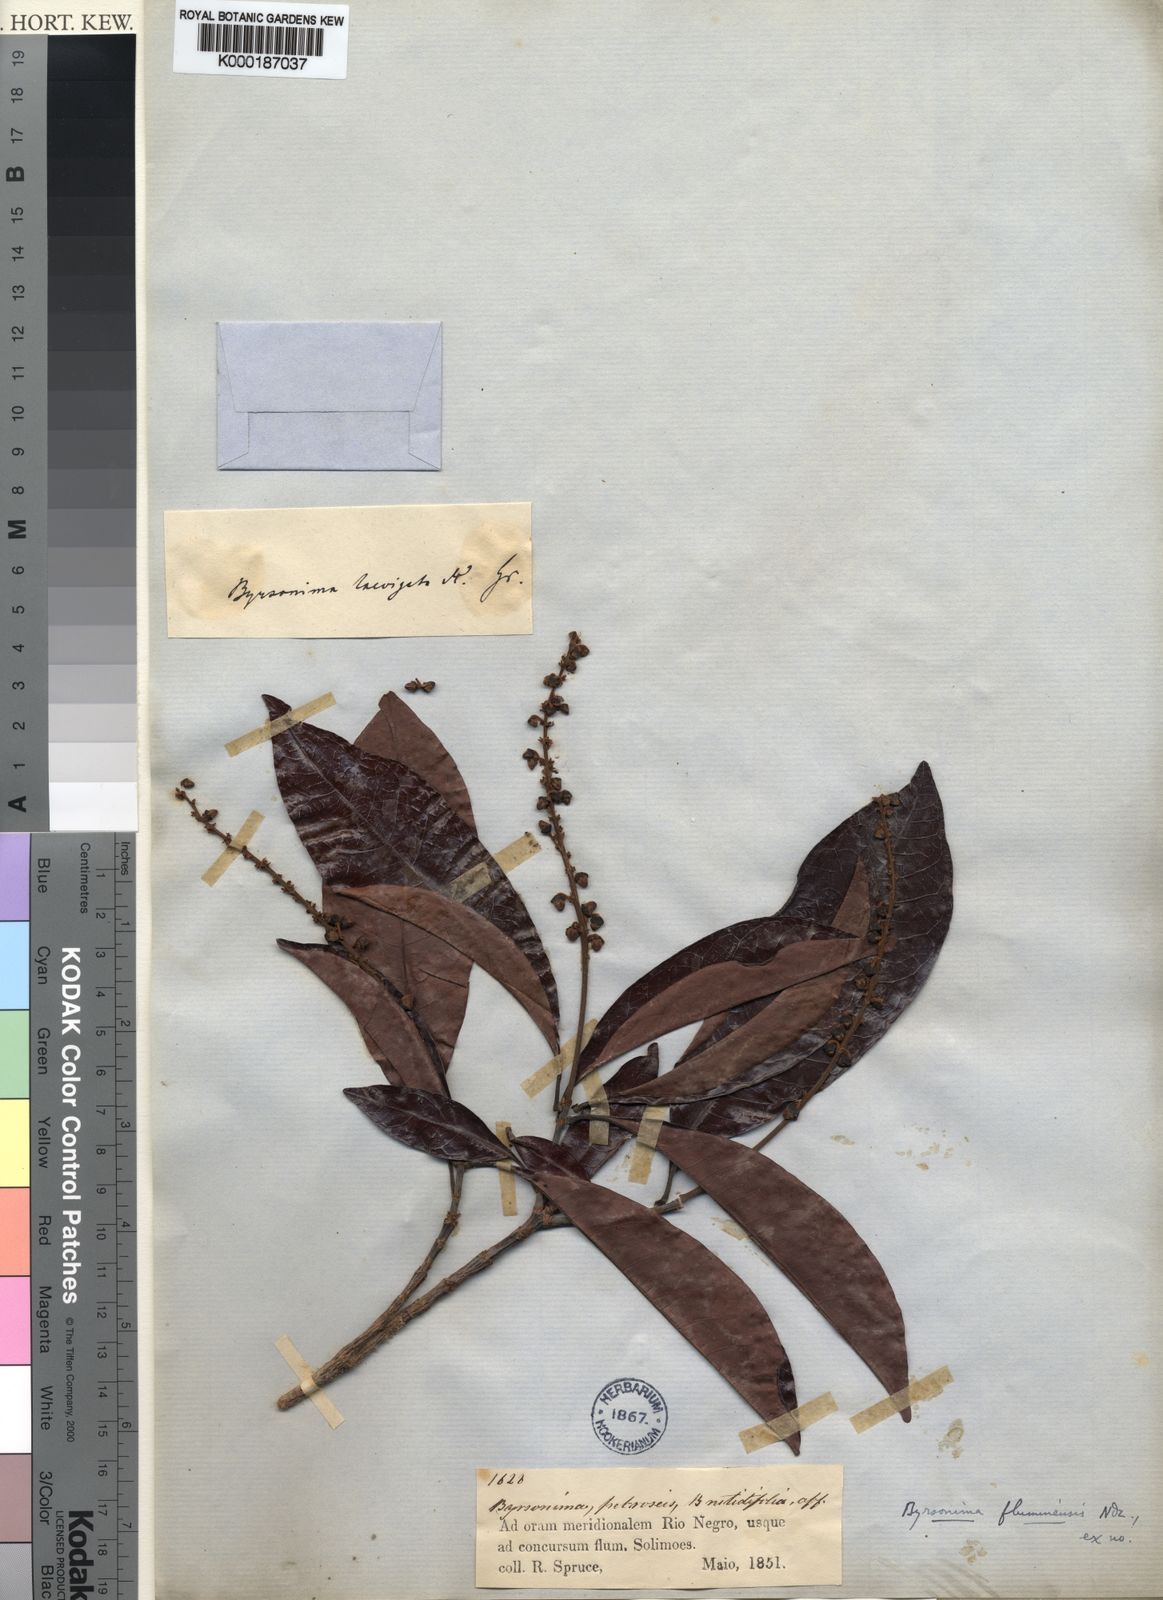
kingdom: Plantae
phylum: Tracheophyta
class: Magnoliopsida
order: Malpighiales
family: Malpighiaceae
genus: Byrsonima
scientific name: Byrsonima japurensis
